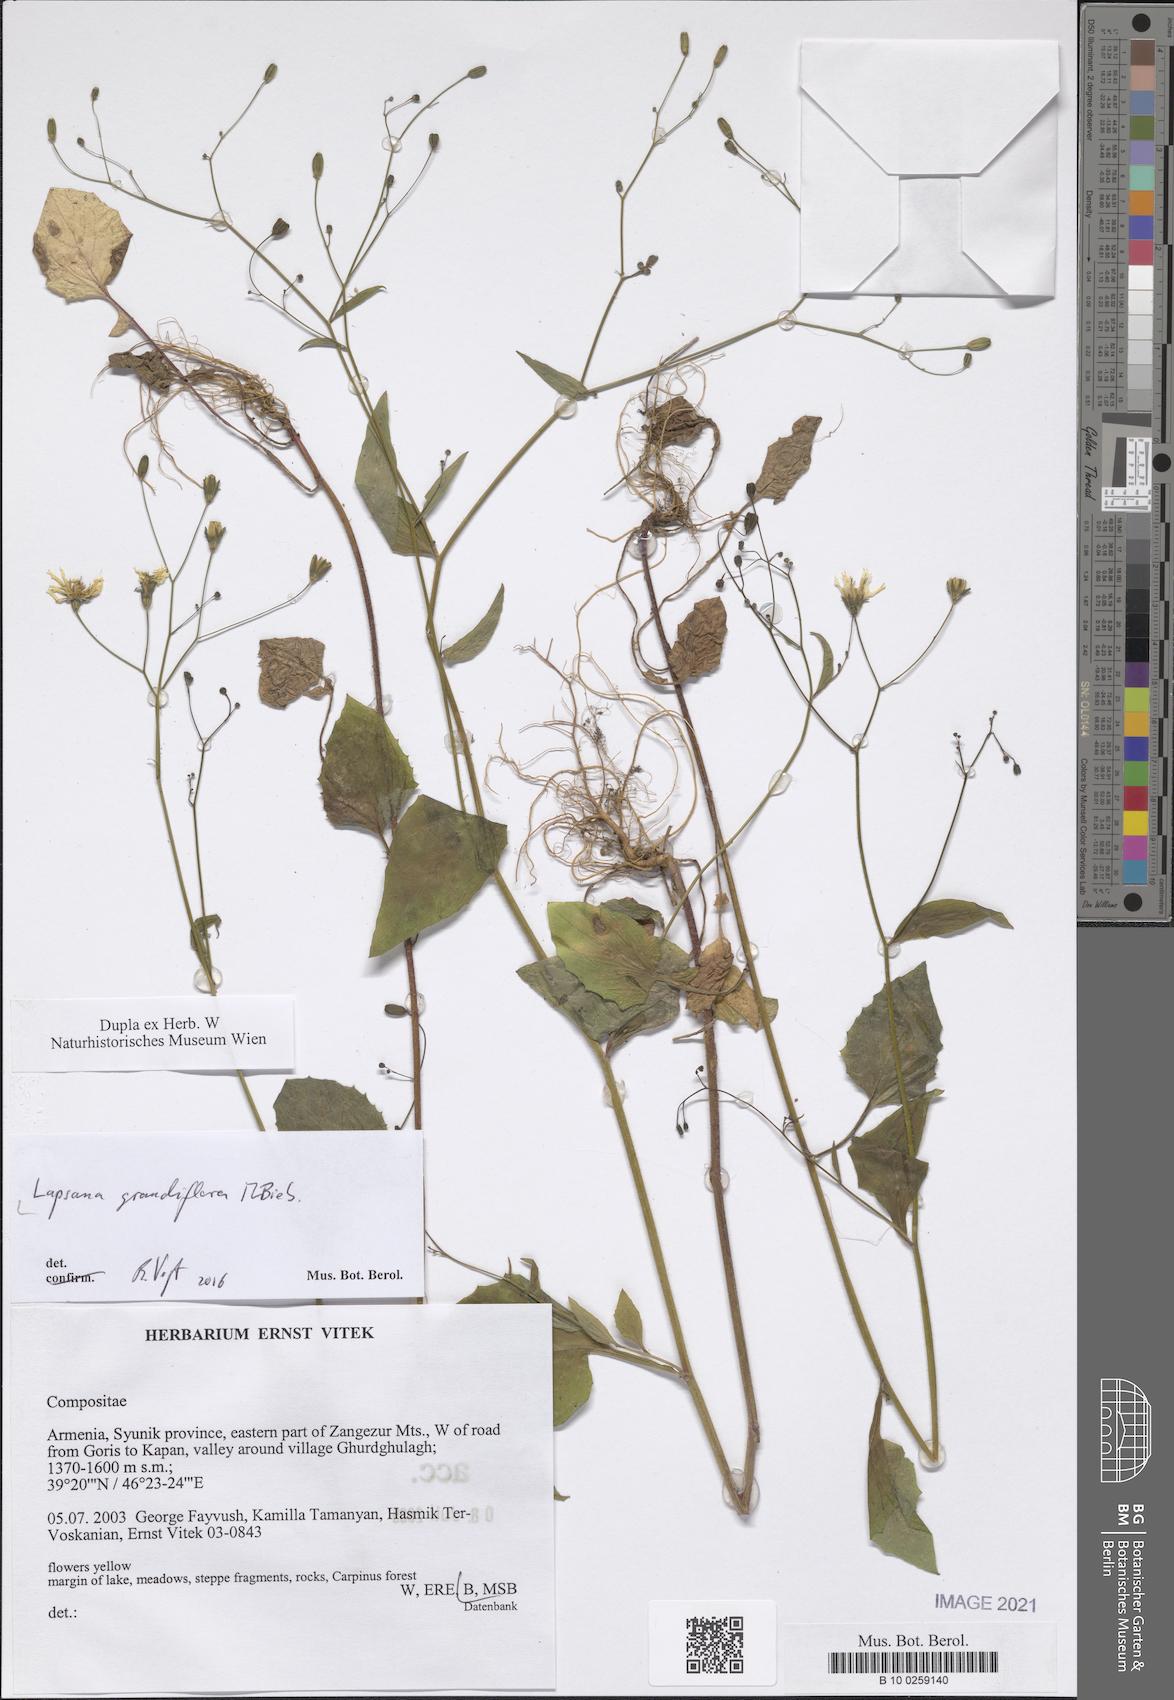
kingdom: Plantae
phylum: Tracheophyta
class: Magnoliopsida
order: Asterales
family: Asteraceae
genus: Lapsana
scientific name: Lapsana communis
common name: Nipplewort
